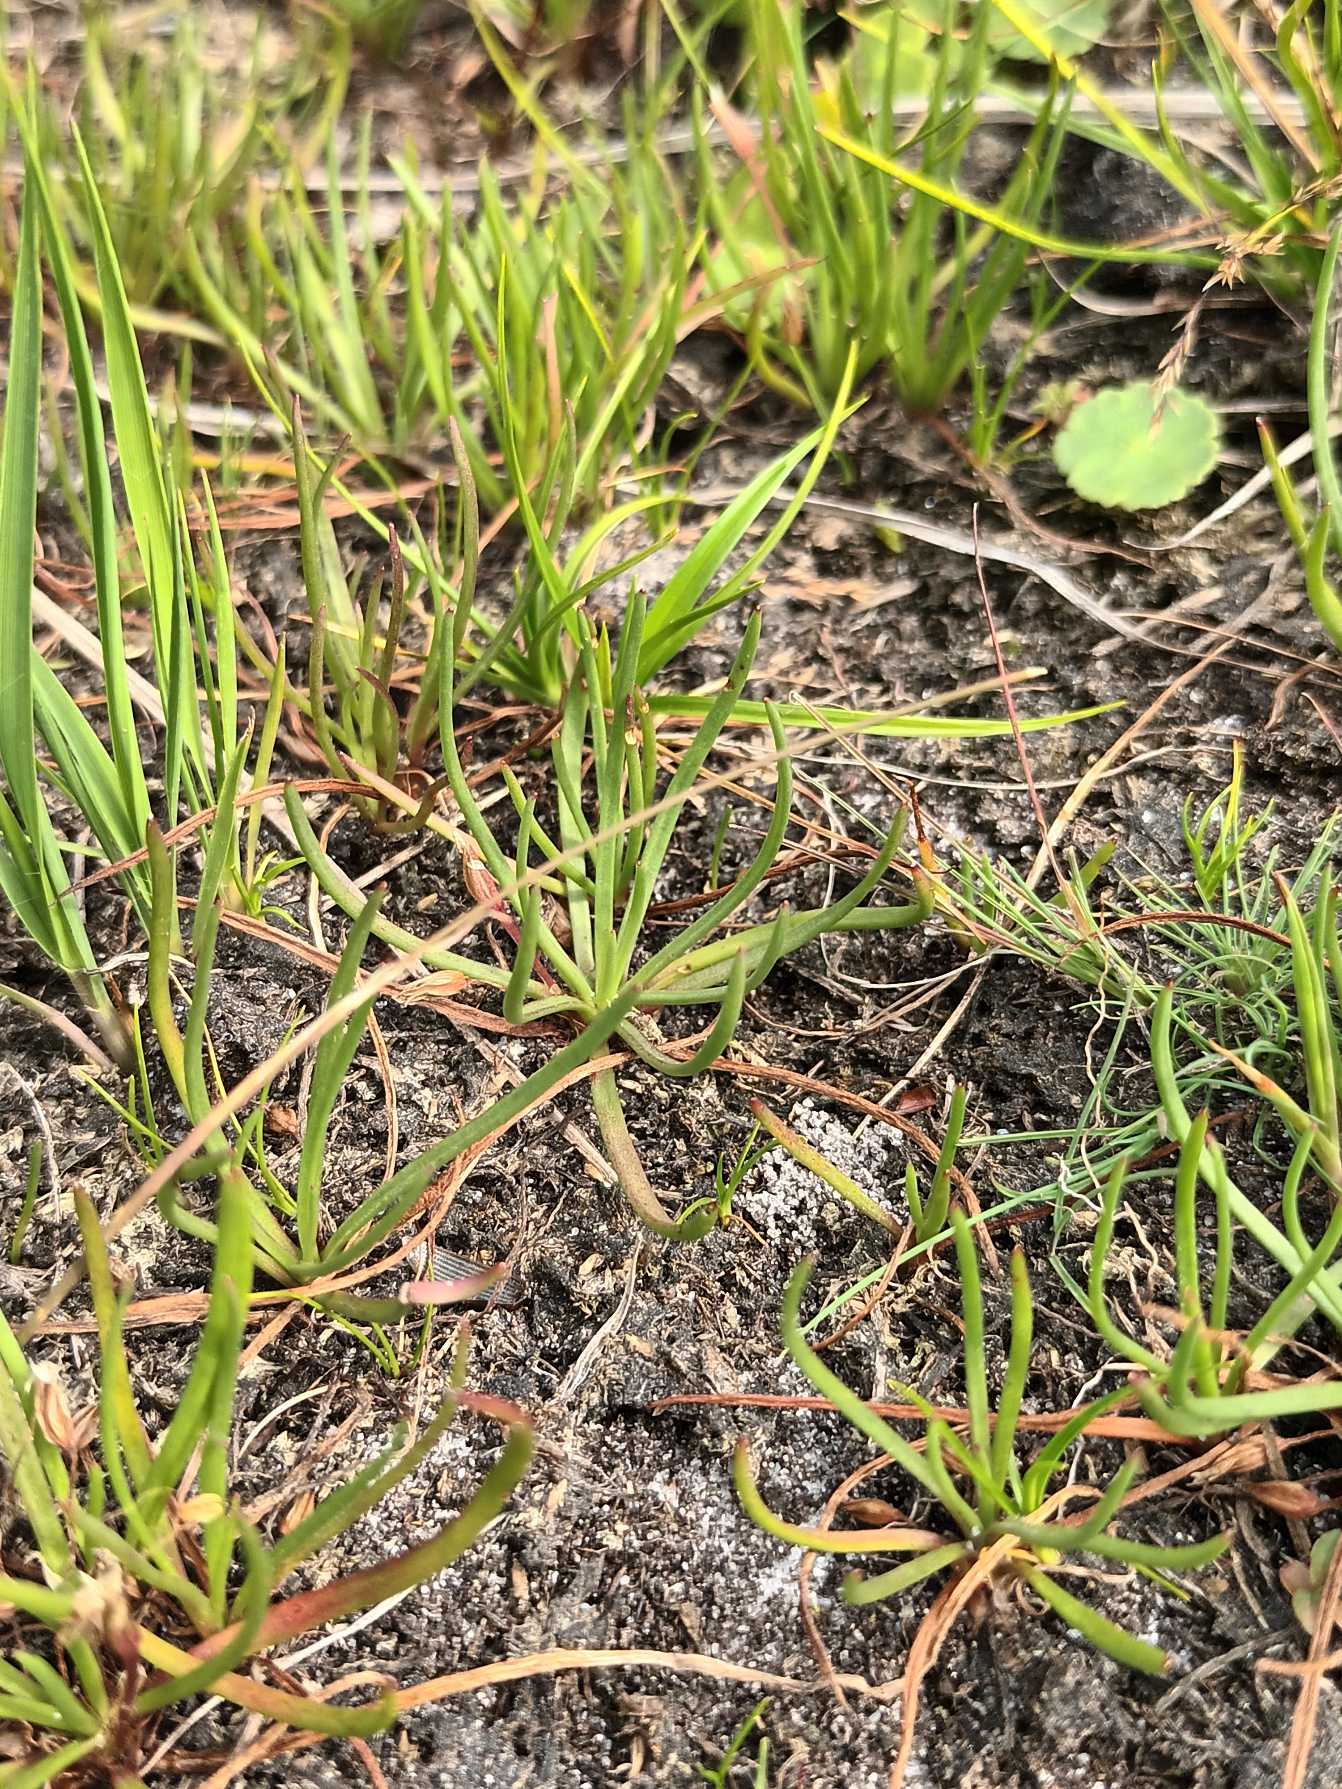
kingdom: Plantae
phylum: Tracheophyta
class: Magnoliopsida
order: Lamiales
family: Plantaginaceae
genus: Littorella
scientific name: Littorella uniflora
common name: Strandbo
